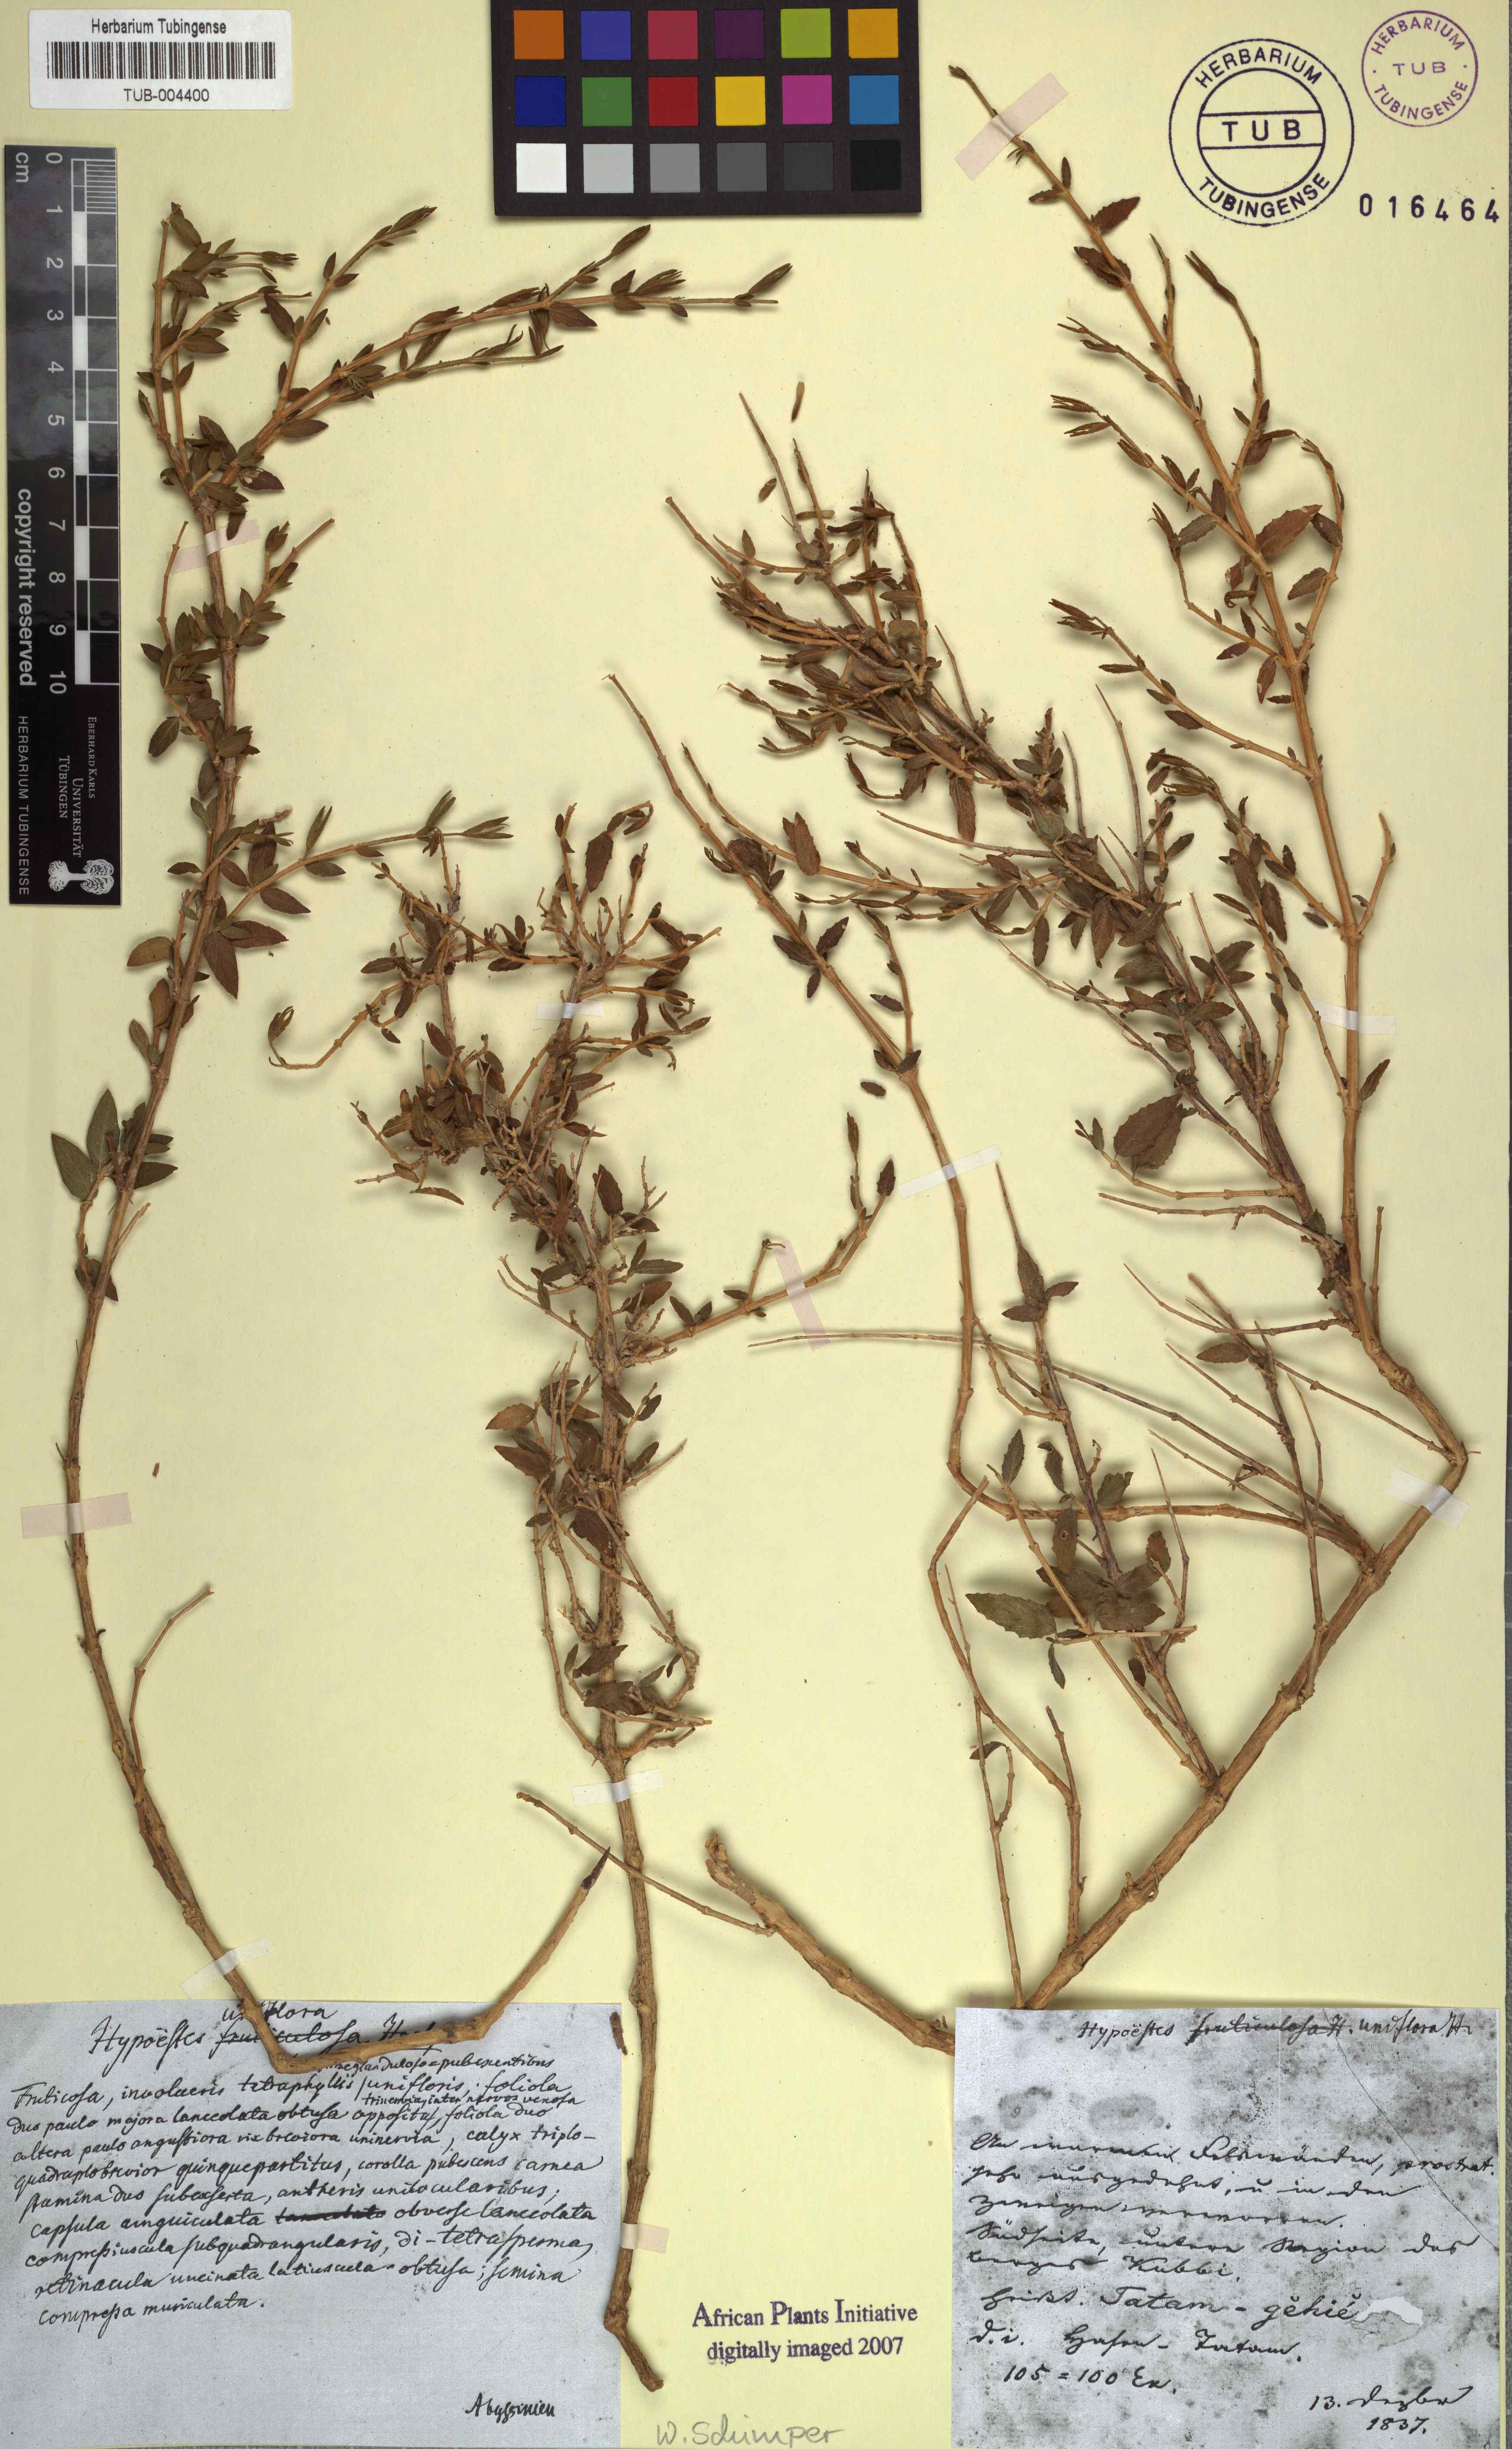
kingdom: Plantae
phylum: Tracheophyta
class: Magnoliopsida
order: Lamiales
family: Acanthaceae
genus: Hypoestes
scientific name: Hypoestes triflora
